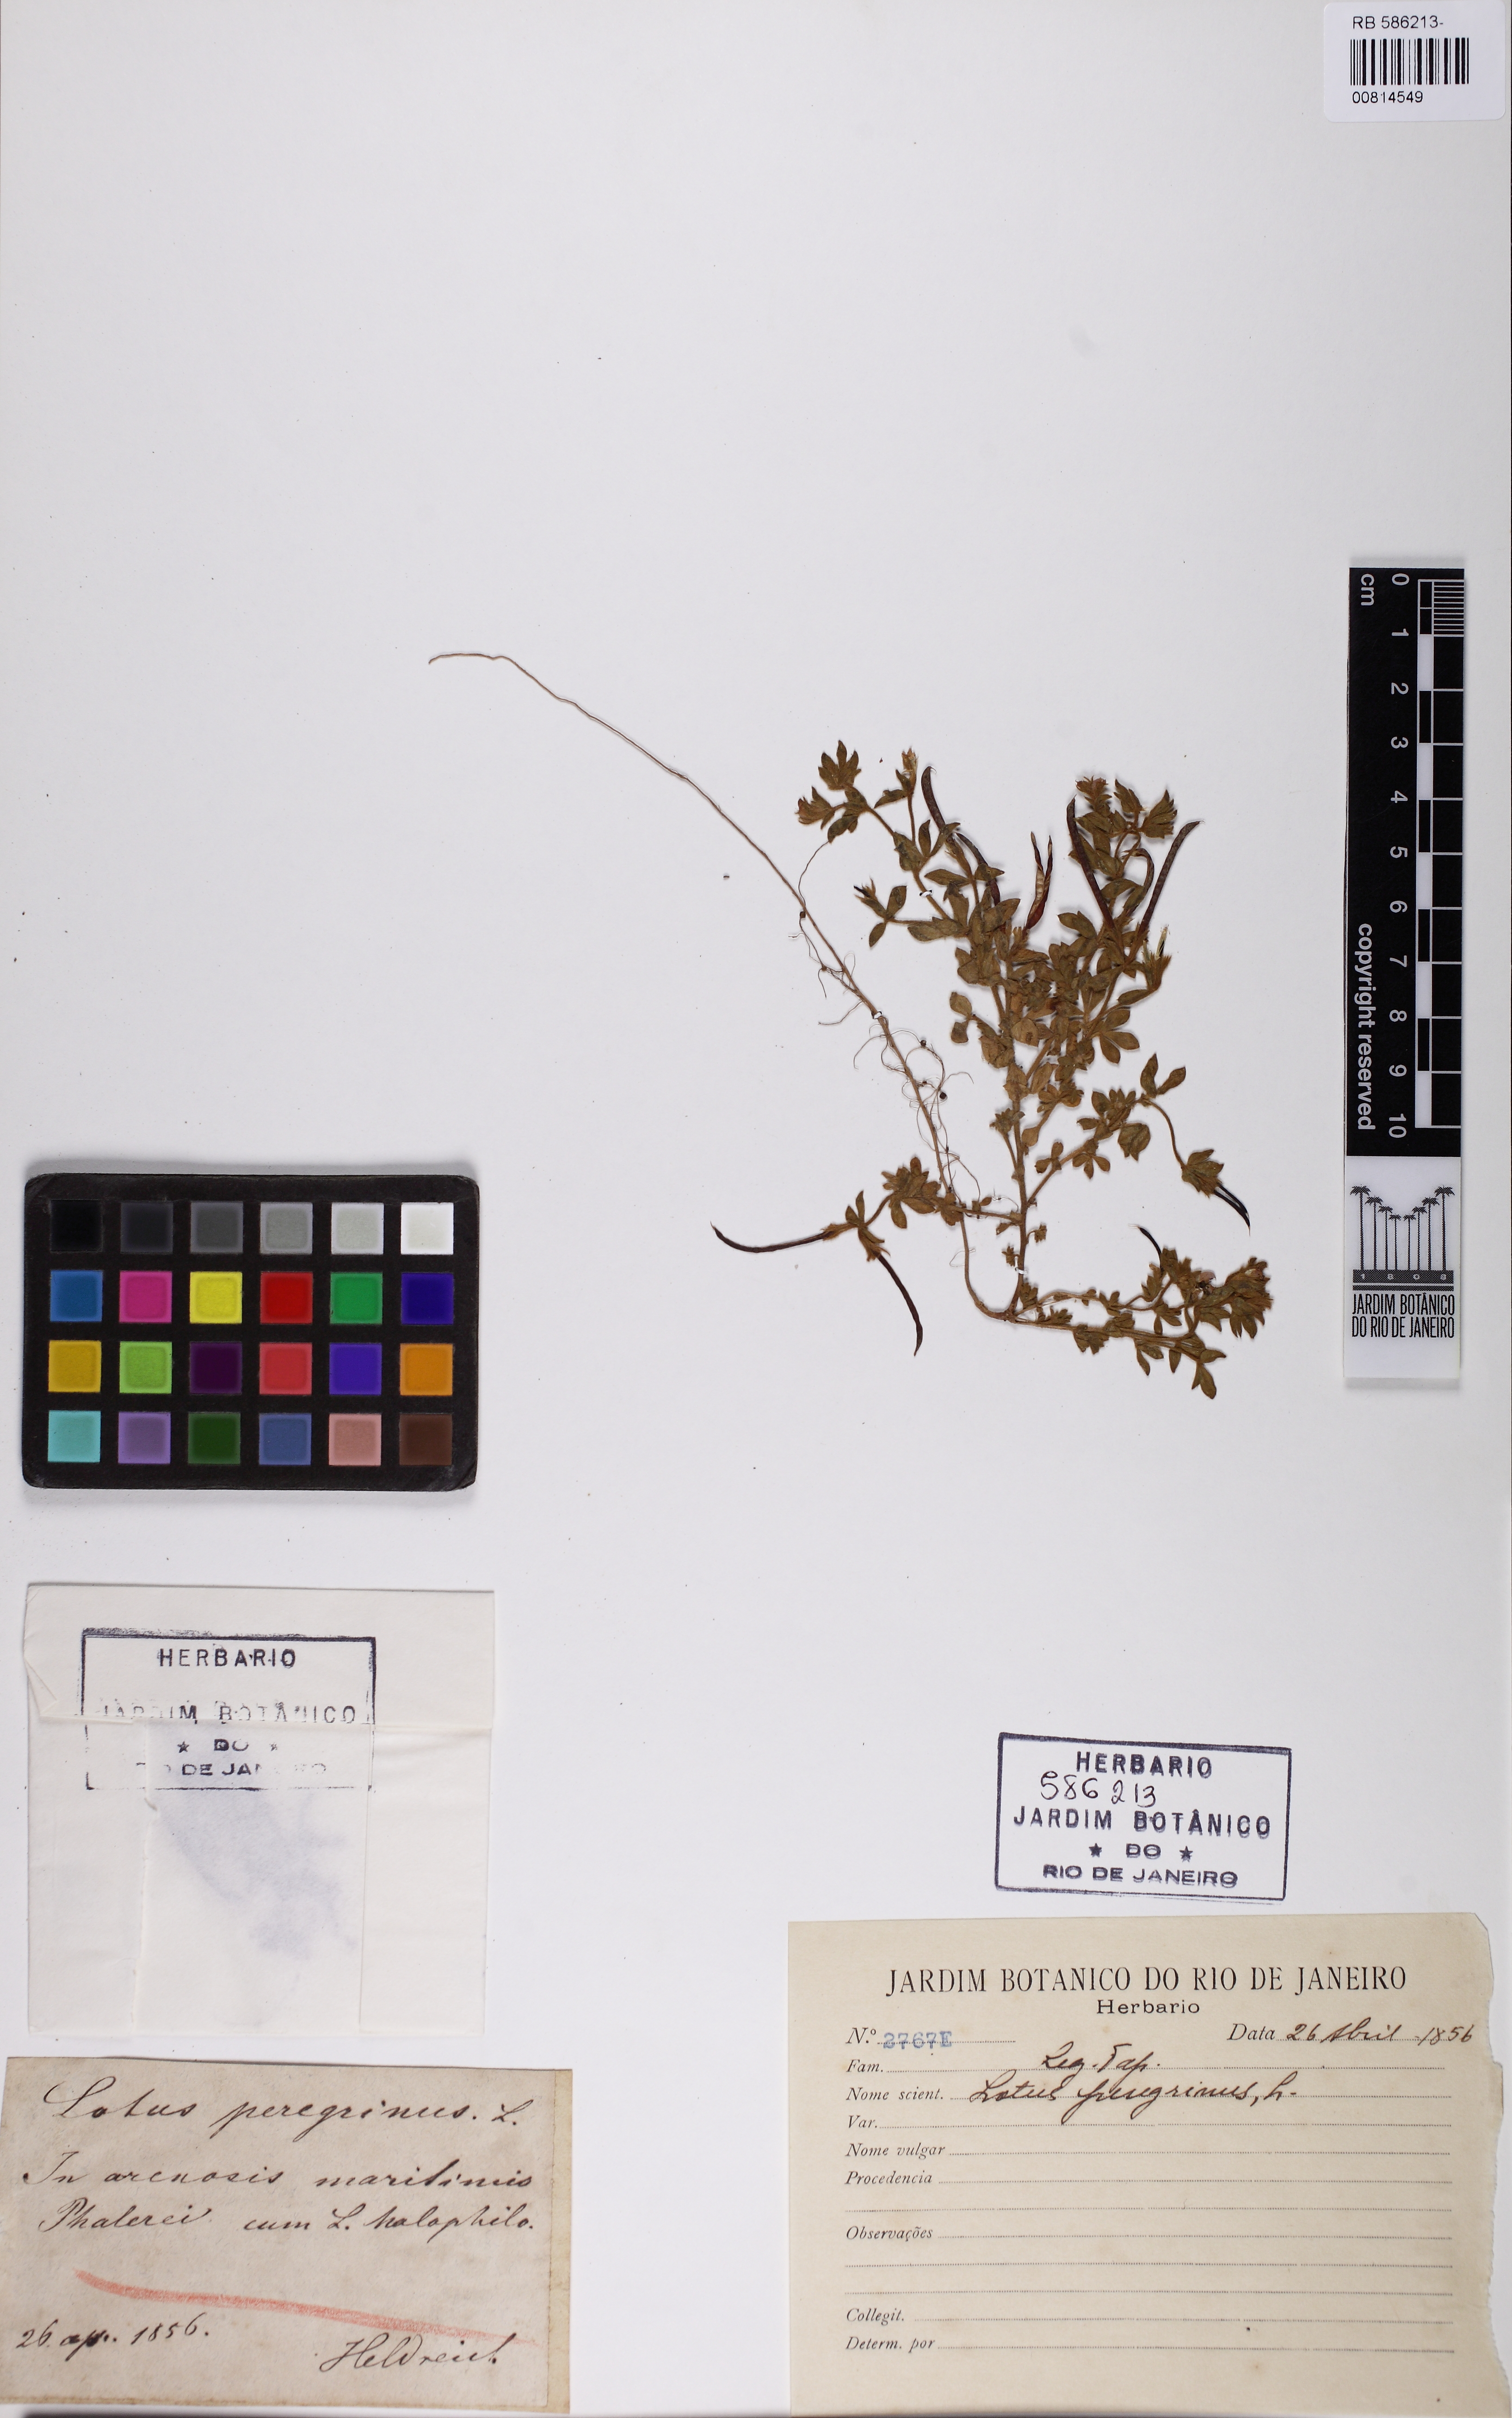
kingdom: Plantae
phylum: Tracheophyta
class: Magnoliopsida
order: Fabales
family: Fabaceae
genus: Lotus
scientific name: Lotus peregrinus
